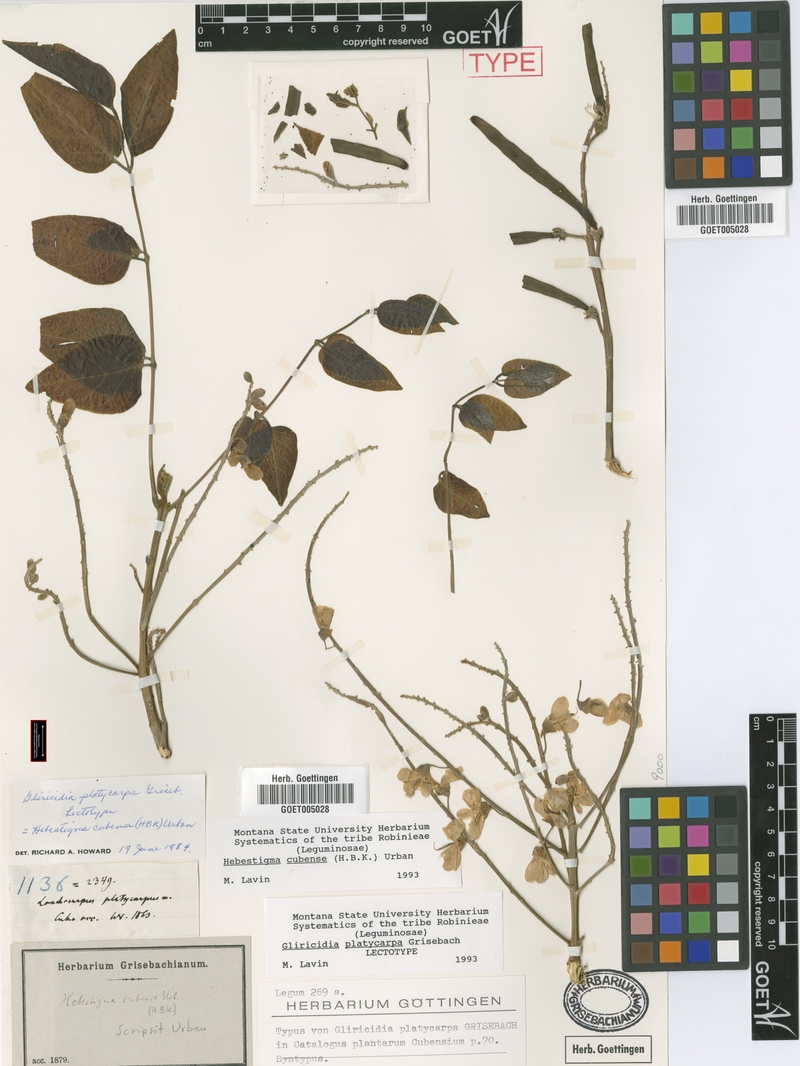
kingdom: Plantae
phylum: Tracheophyta
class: Magnoliopsida
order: Fabales
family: Fabaceae
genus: Hebestigma
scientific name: Hebestigma cubense
